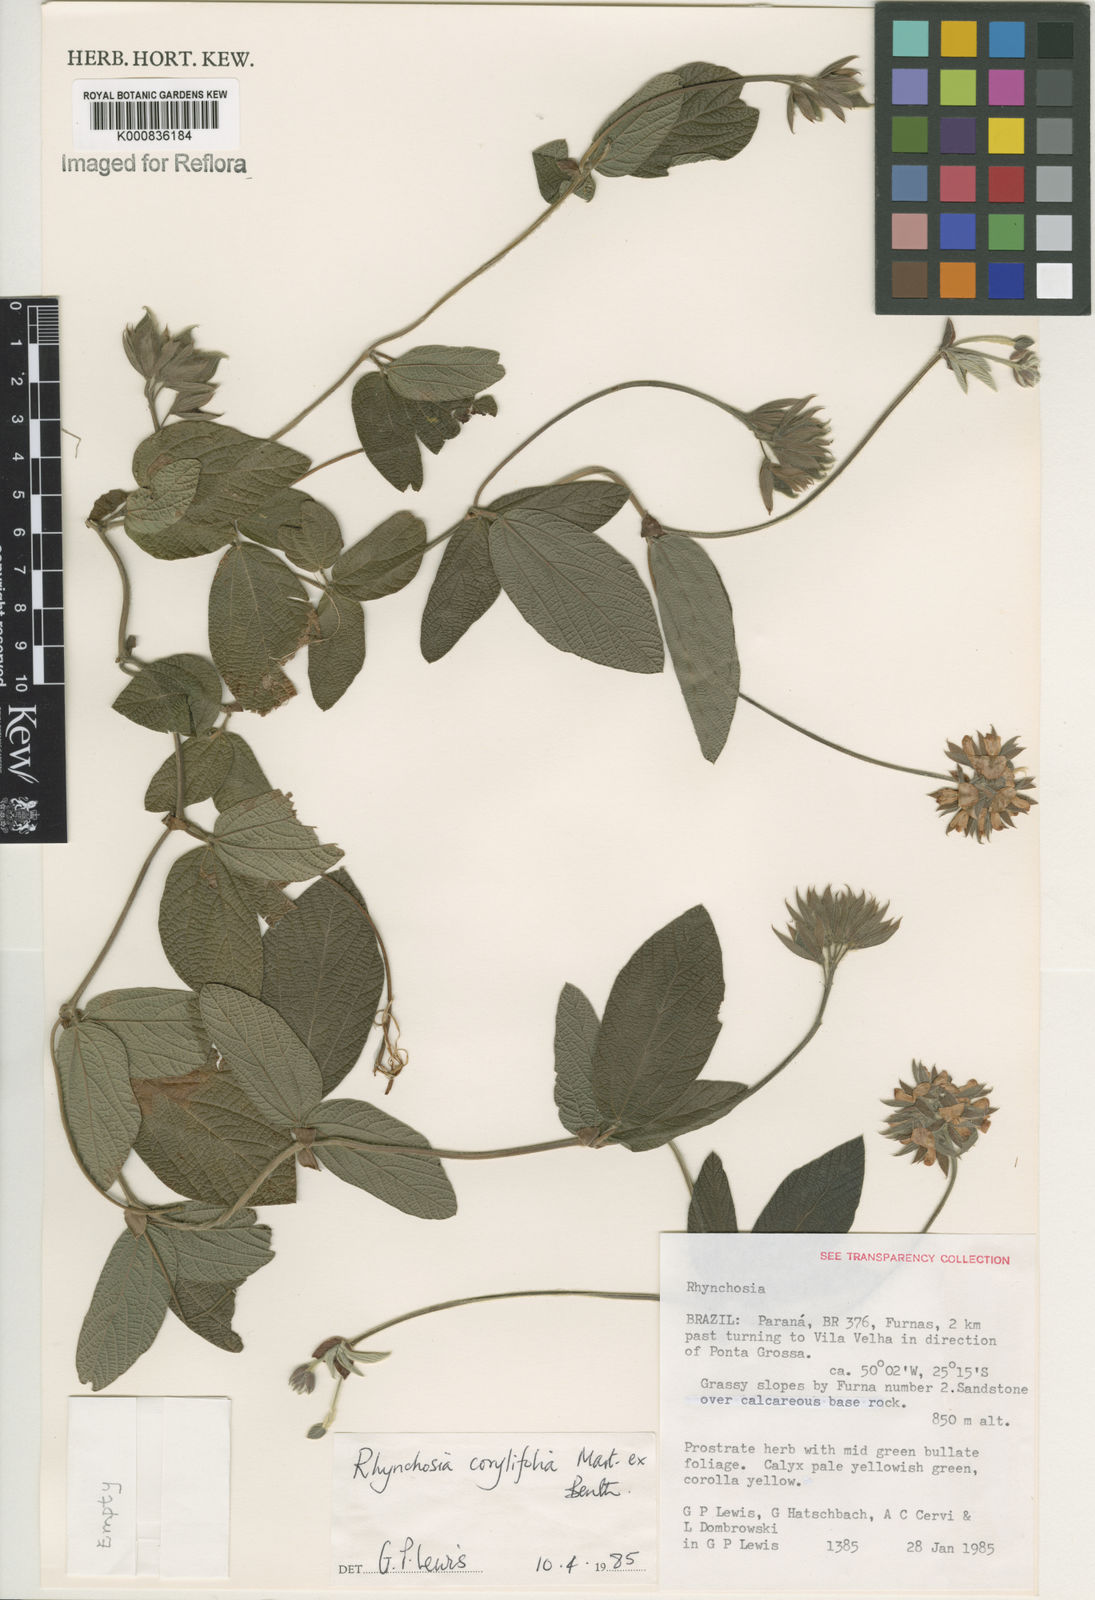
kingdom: Plantae
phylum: Tracheophyta
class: Magnoliopsida
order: Fabales
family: Fabaceae
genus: Rhynchosia
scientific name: Rhynchosia corylifolia
